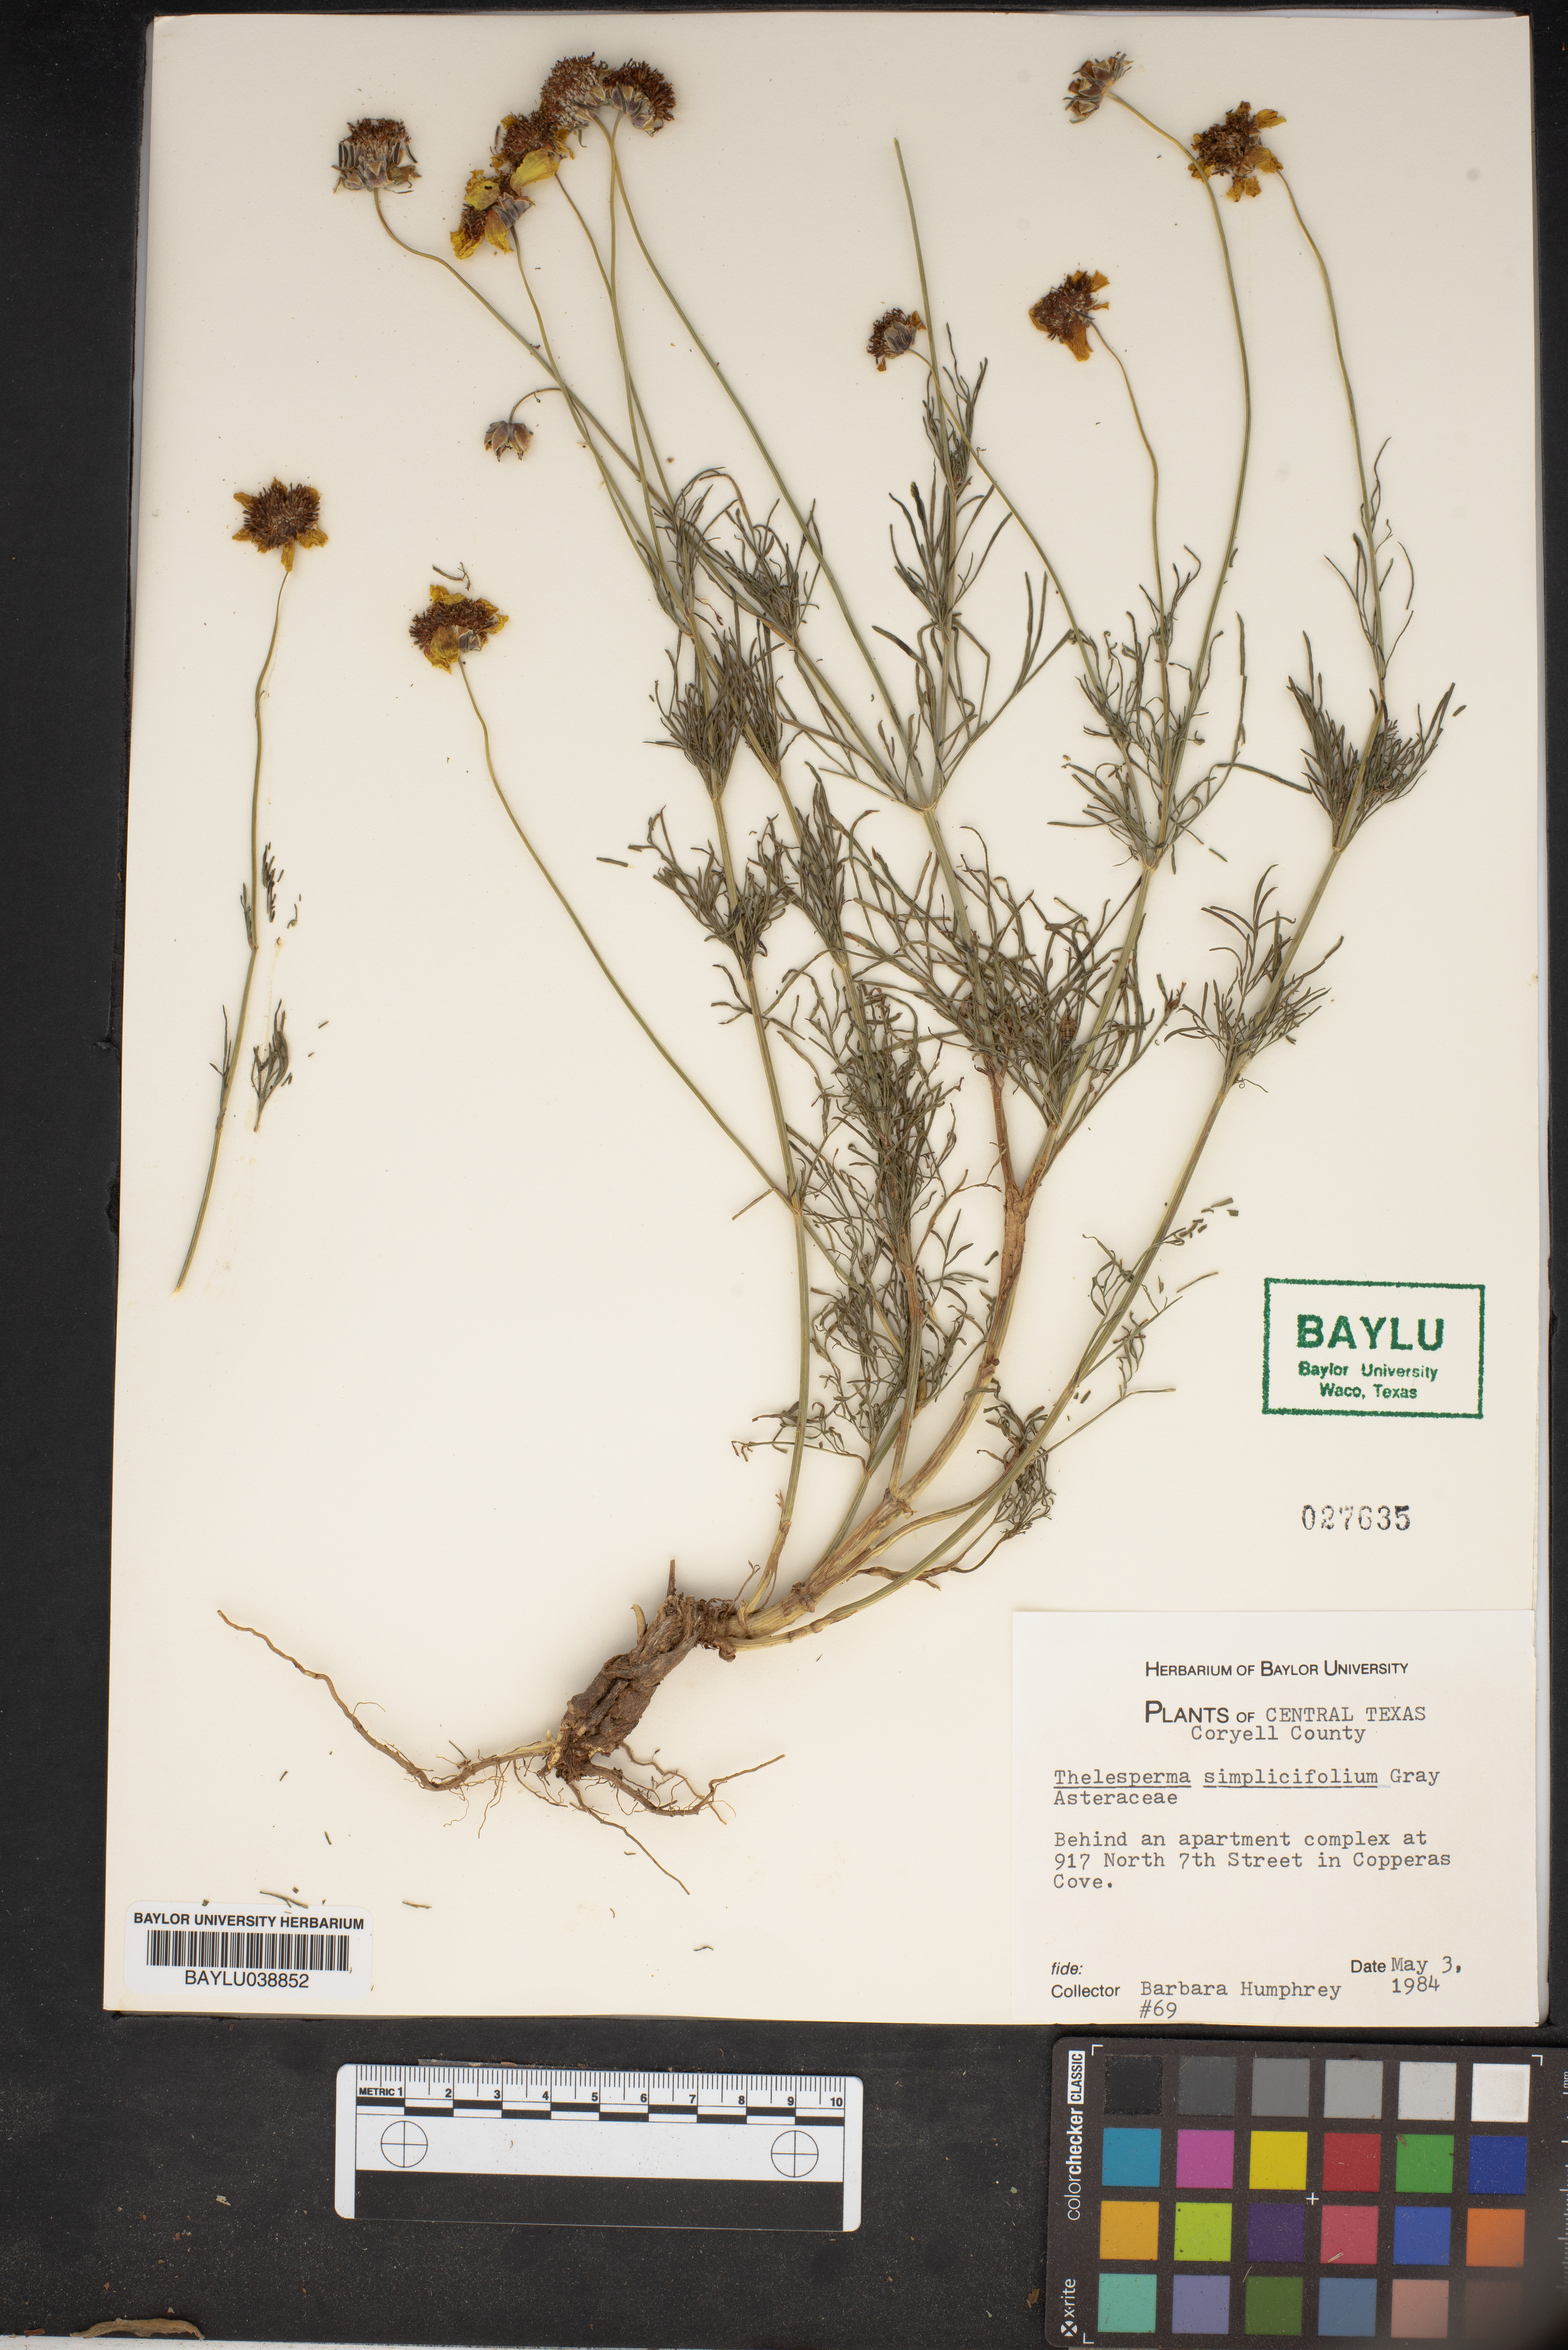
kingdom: Plantae
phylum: Tracheophyta
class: Magnoliopsida
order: Asterales
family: Asteraceae
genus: Thelesperma
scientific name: Thelesperma simplicifolium
